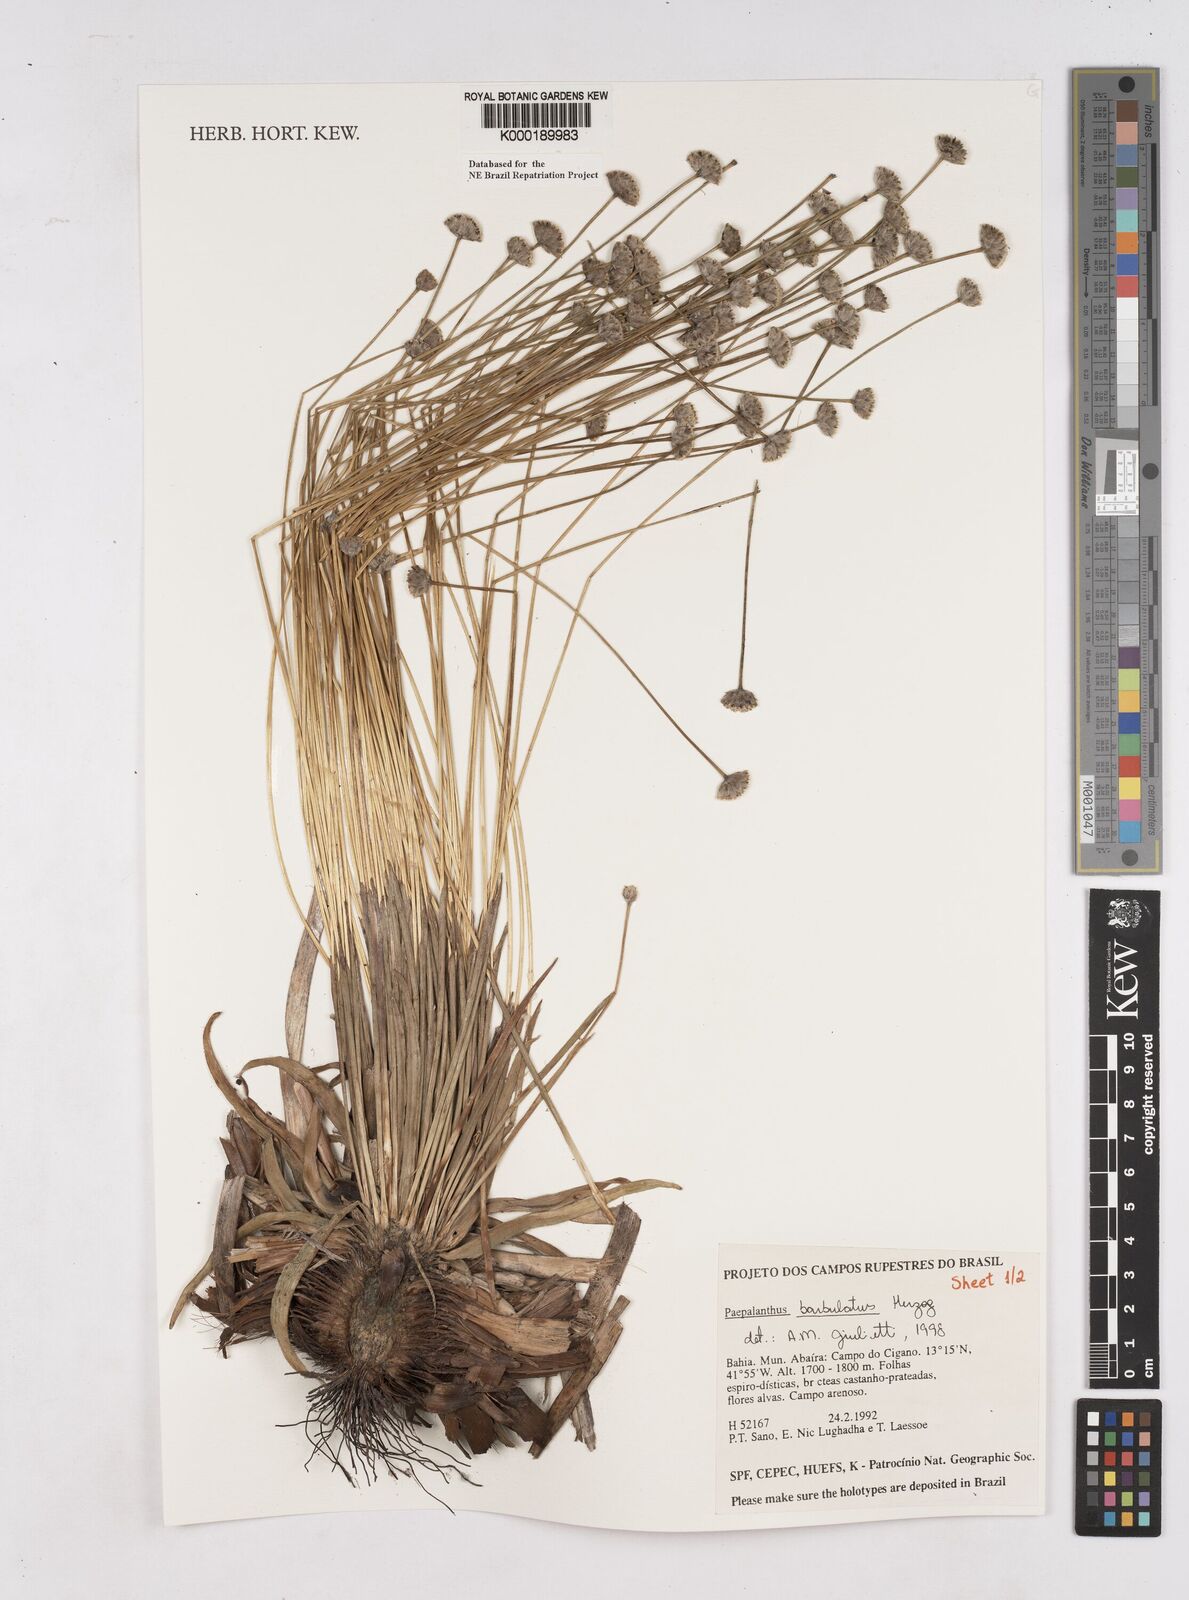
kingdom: Plantae
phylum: Tracheophyta
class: Liliopsida
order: Poales
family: Eriocaulaceae
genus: Paepalanthus
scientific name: Paepalanthus barbulatus
